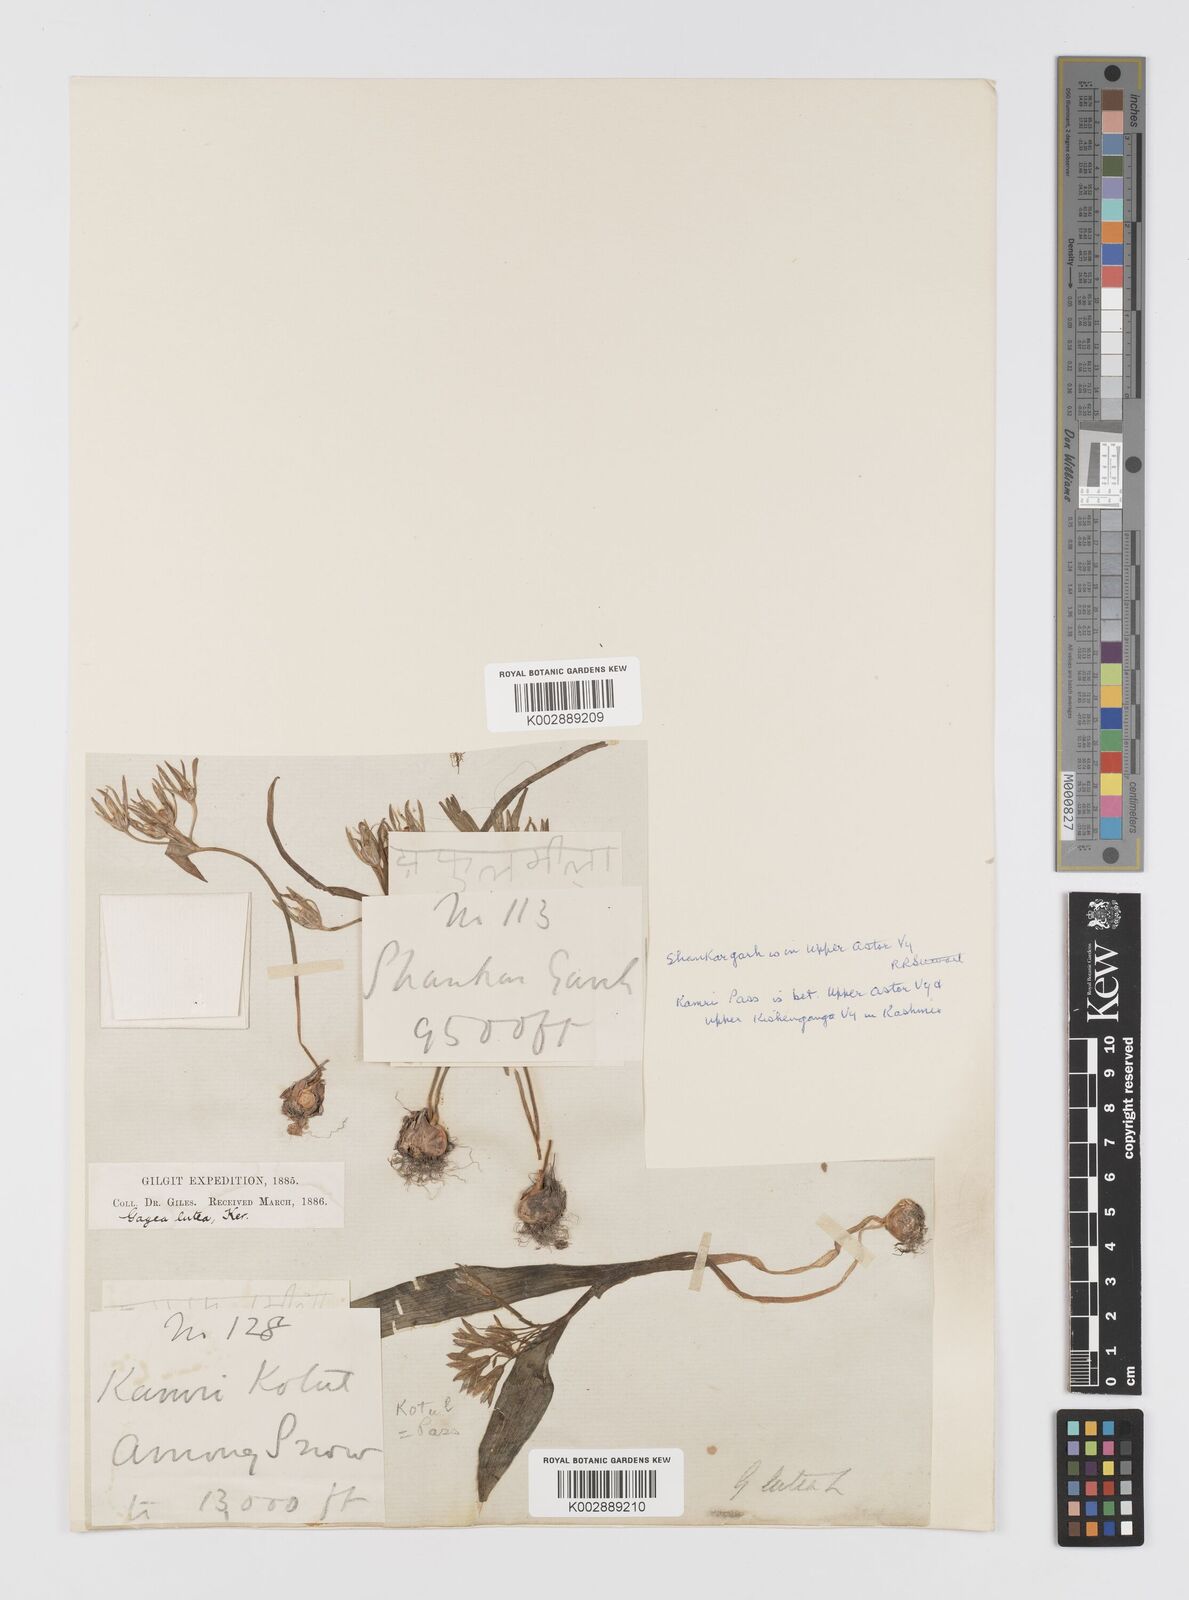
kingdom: Plantae
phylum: Tracheophyta
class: Liliopsida
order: Liliales
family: Liliaceae
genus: Gagea
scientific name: Gagea lutea
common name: Yellow star-of-bethlehem
